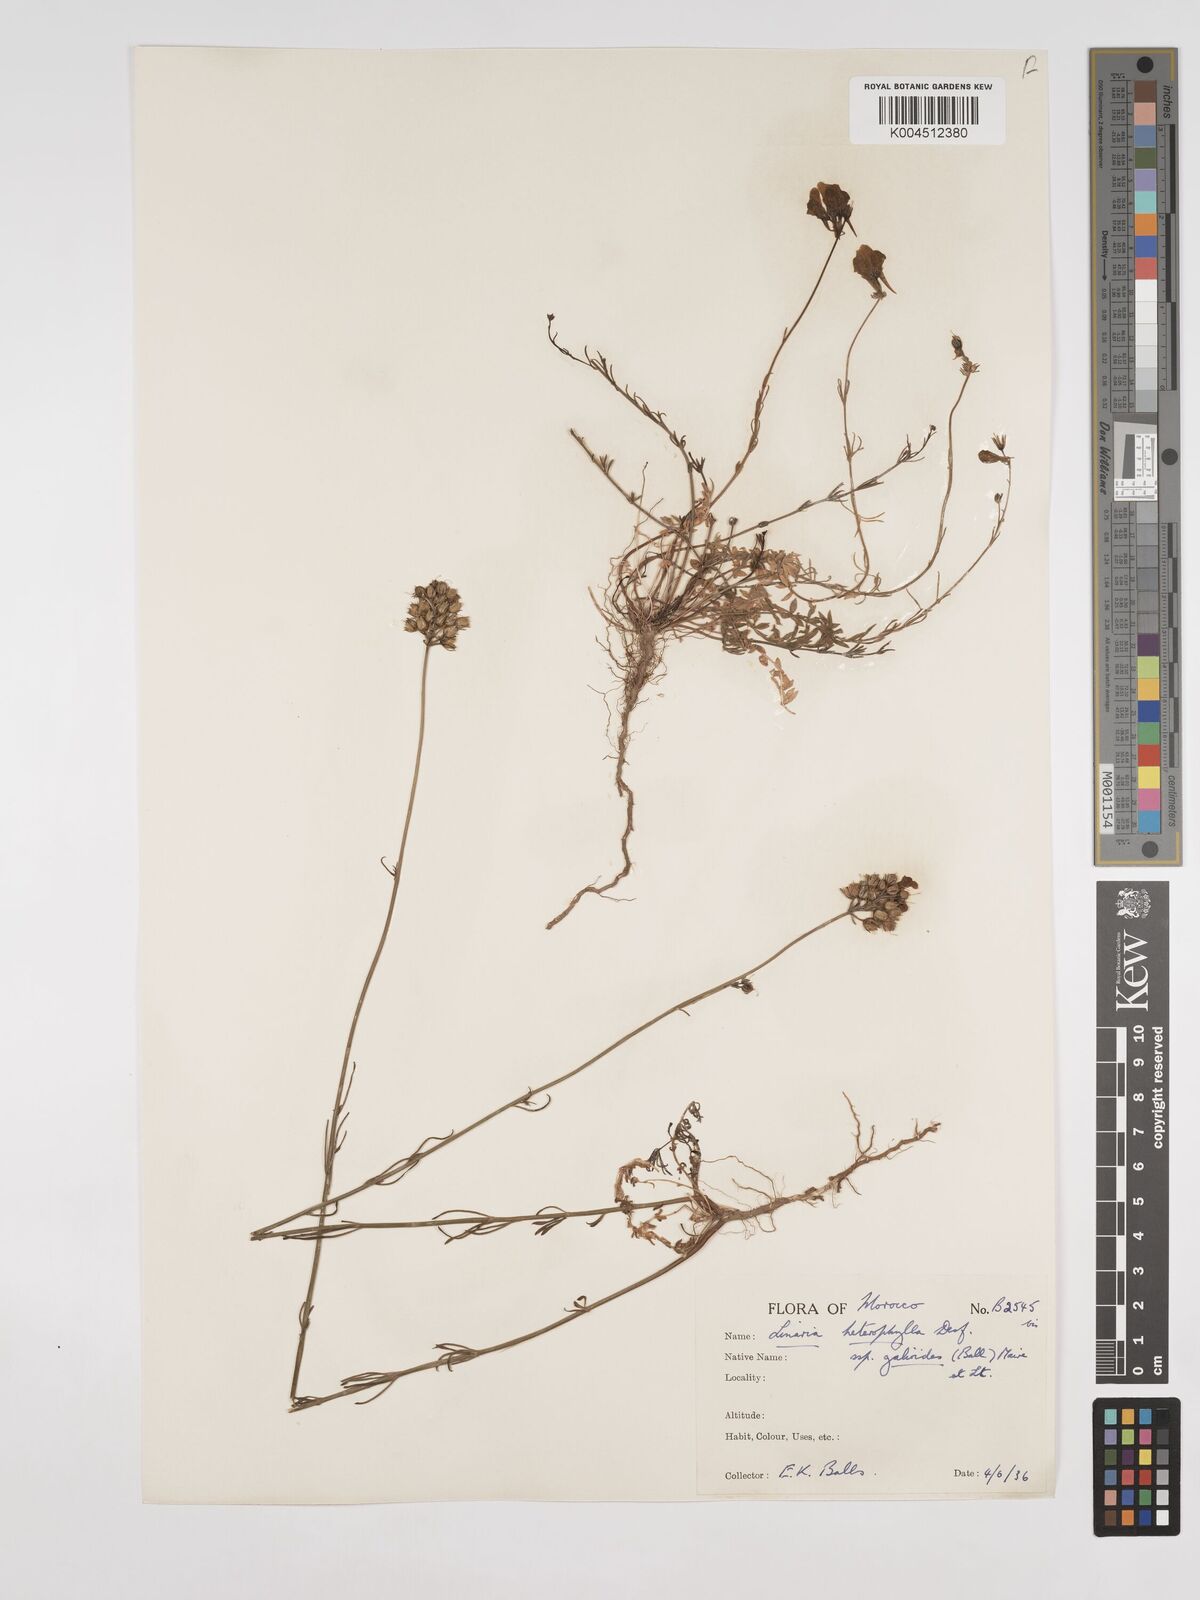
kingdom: Plantae
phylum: Tracheophyta
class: Magnoliopsida
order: Lamiales
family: Plantaginaceae
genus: Linaria
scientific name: Linaria
